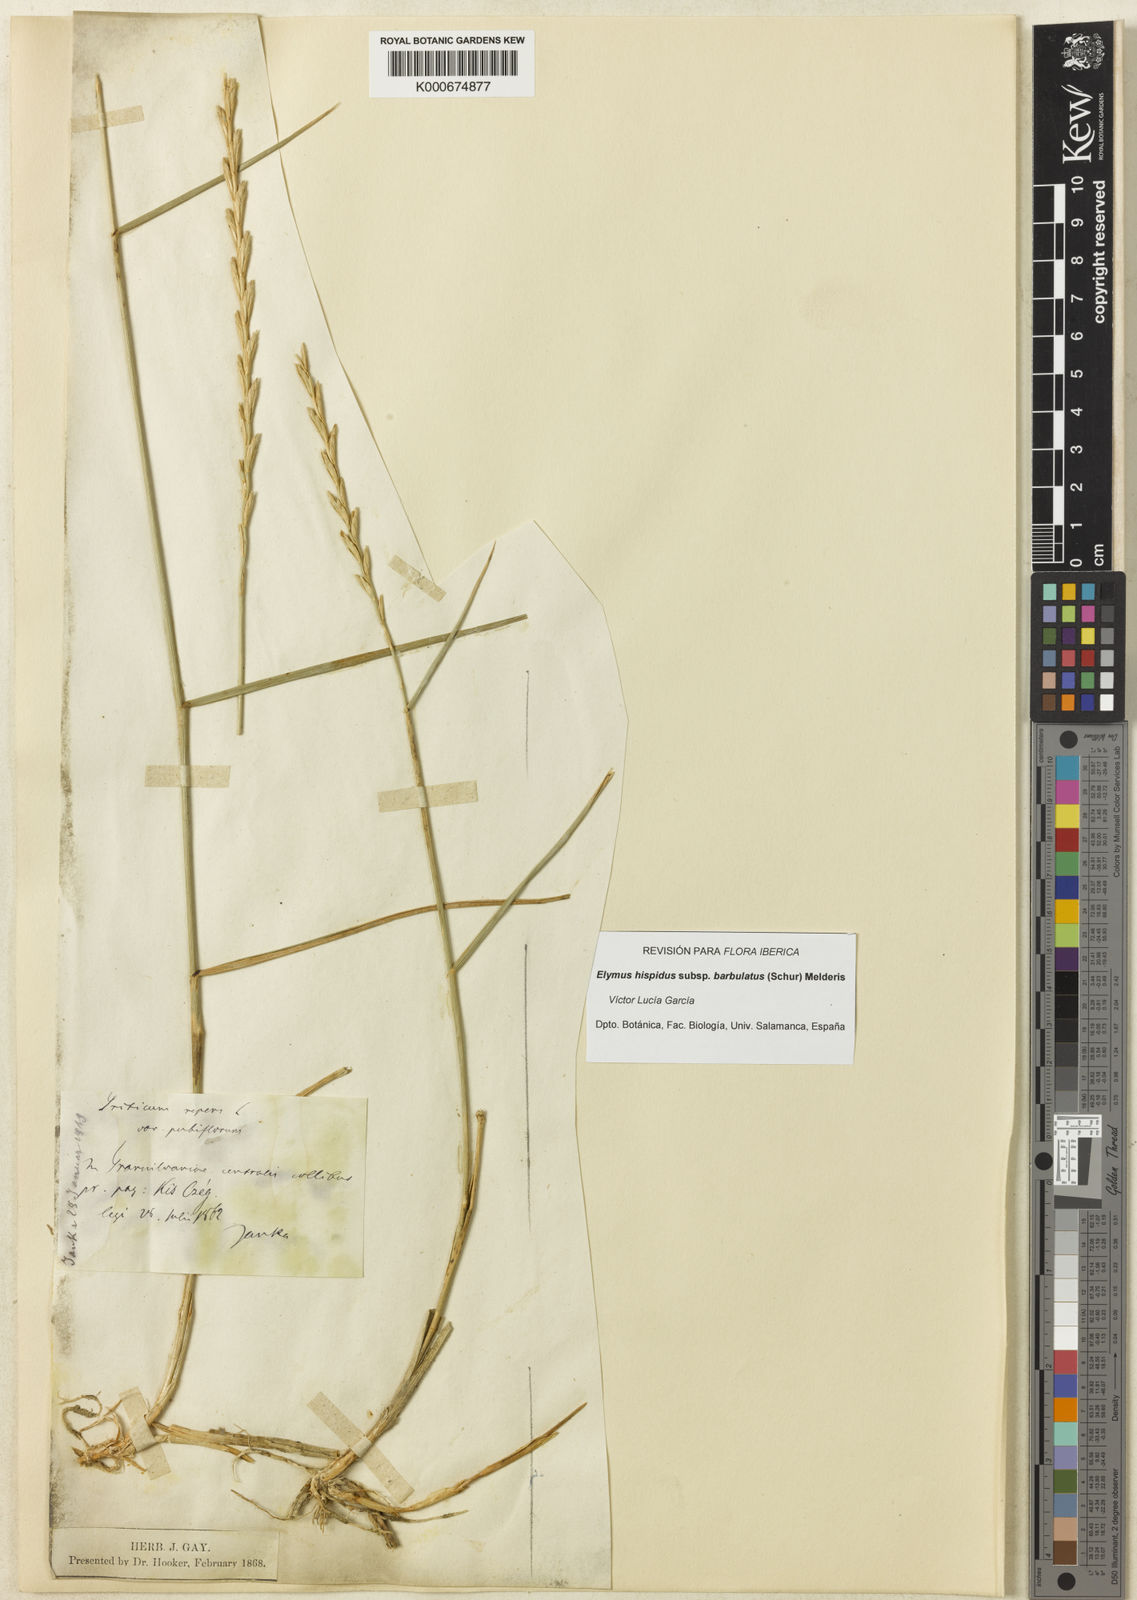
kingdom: Plantae
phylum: Tracheophyta
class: Liliopsida
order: Poales
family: Poaceae
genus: Elymus
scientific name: Elymus repens
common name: Quackgrass
